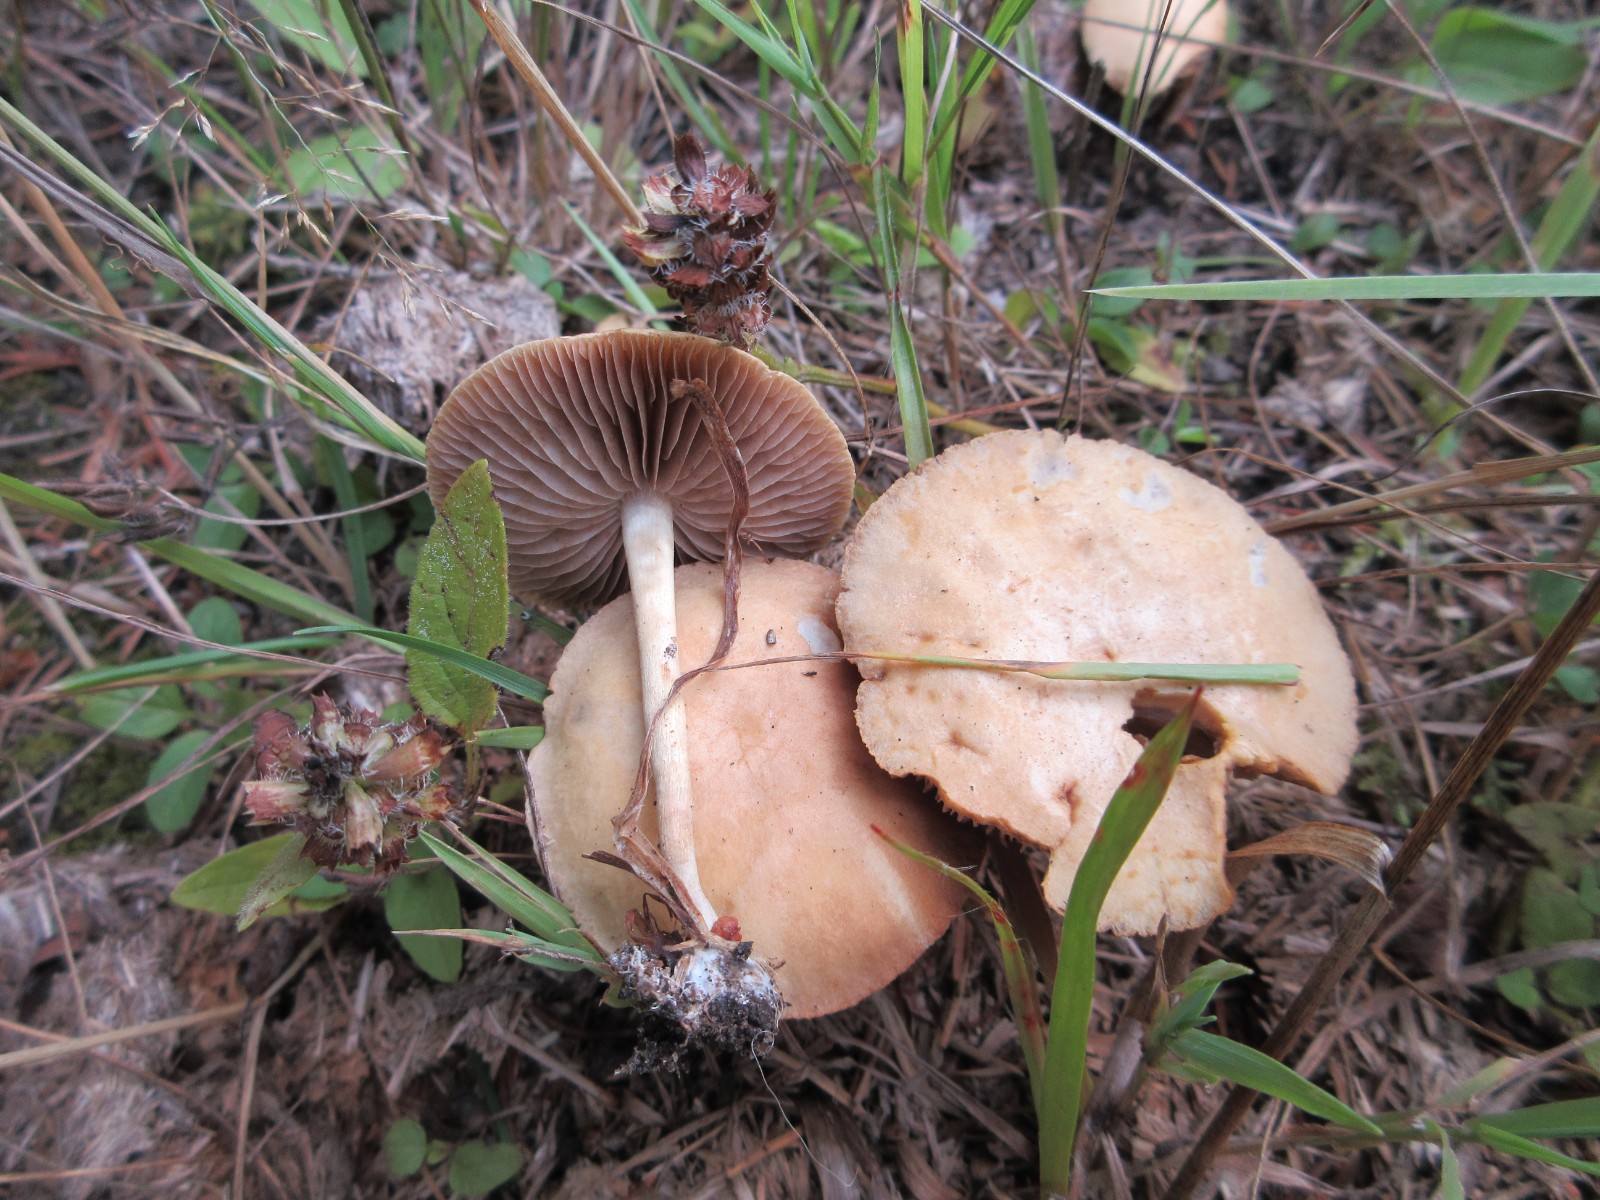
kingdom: Fungi
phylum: Basidiomycota
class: Agaricomycetes
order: Agaricales
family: Strophariaceae
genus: Agrocybe
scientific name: Agrocybe pediades
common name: almindelig agerhat
